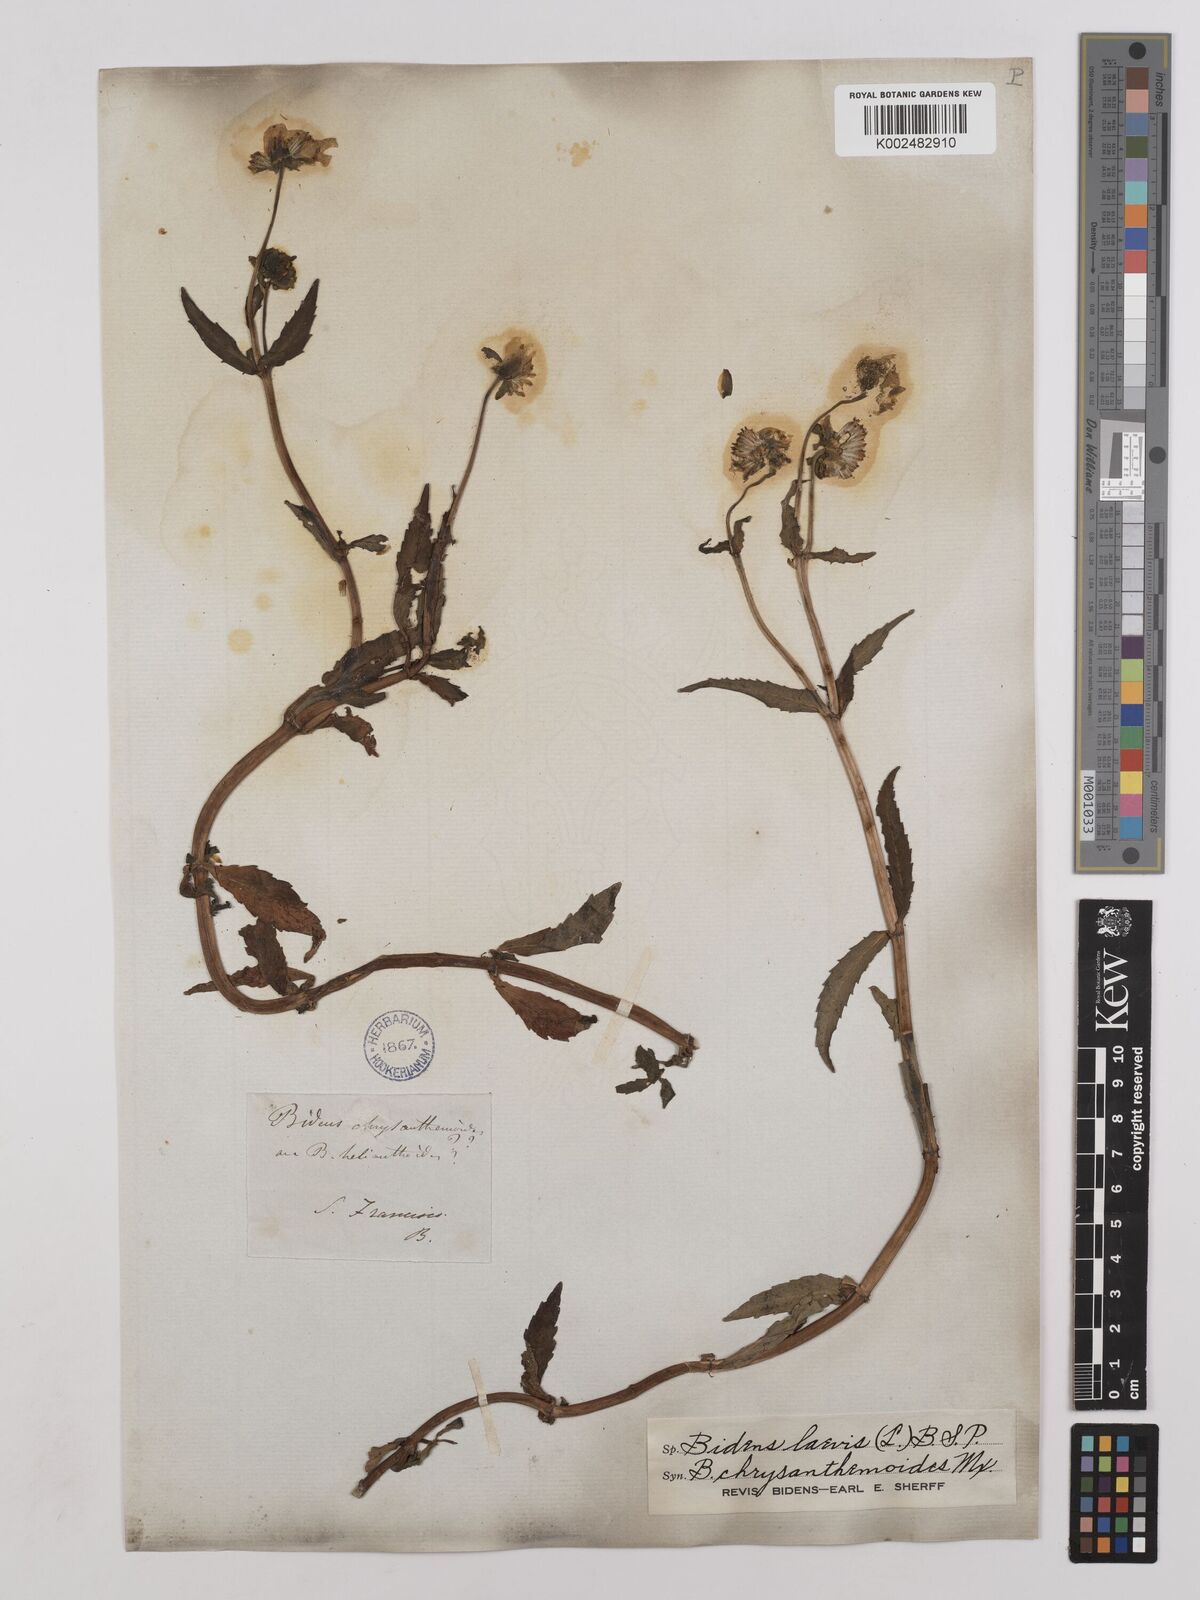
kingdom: Plantae
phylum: Tracheophyta
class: Magnoliopsida
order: Asterales
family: Asteraceae
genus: Bidens
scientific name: Bidens
